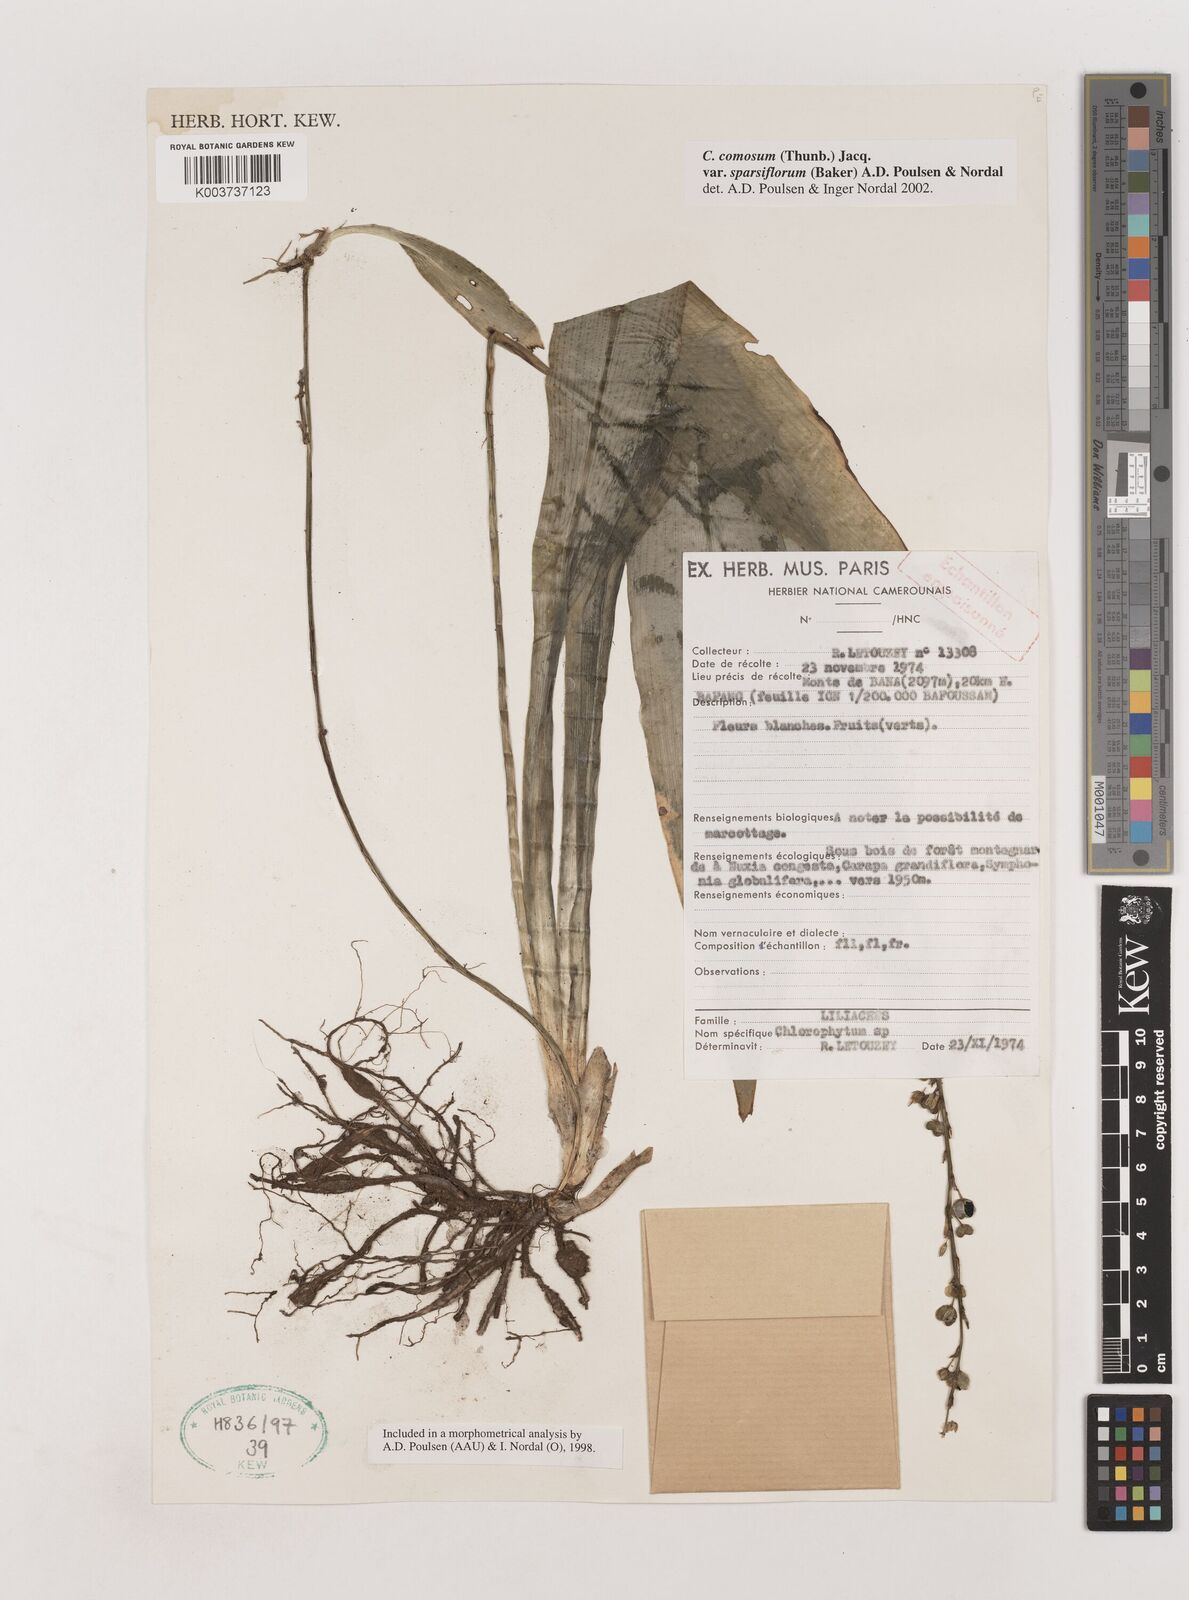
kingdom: Plantae
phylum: Tracheophyta
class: Liliopsida
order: Asparagales
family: Asparagaceae
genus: Chlorophytum
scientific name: Chlorophytum sparsiflorum
